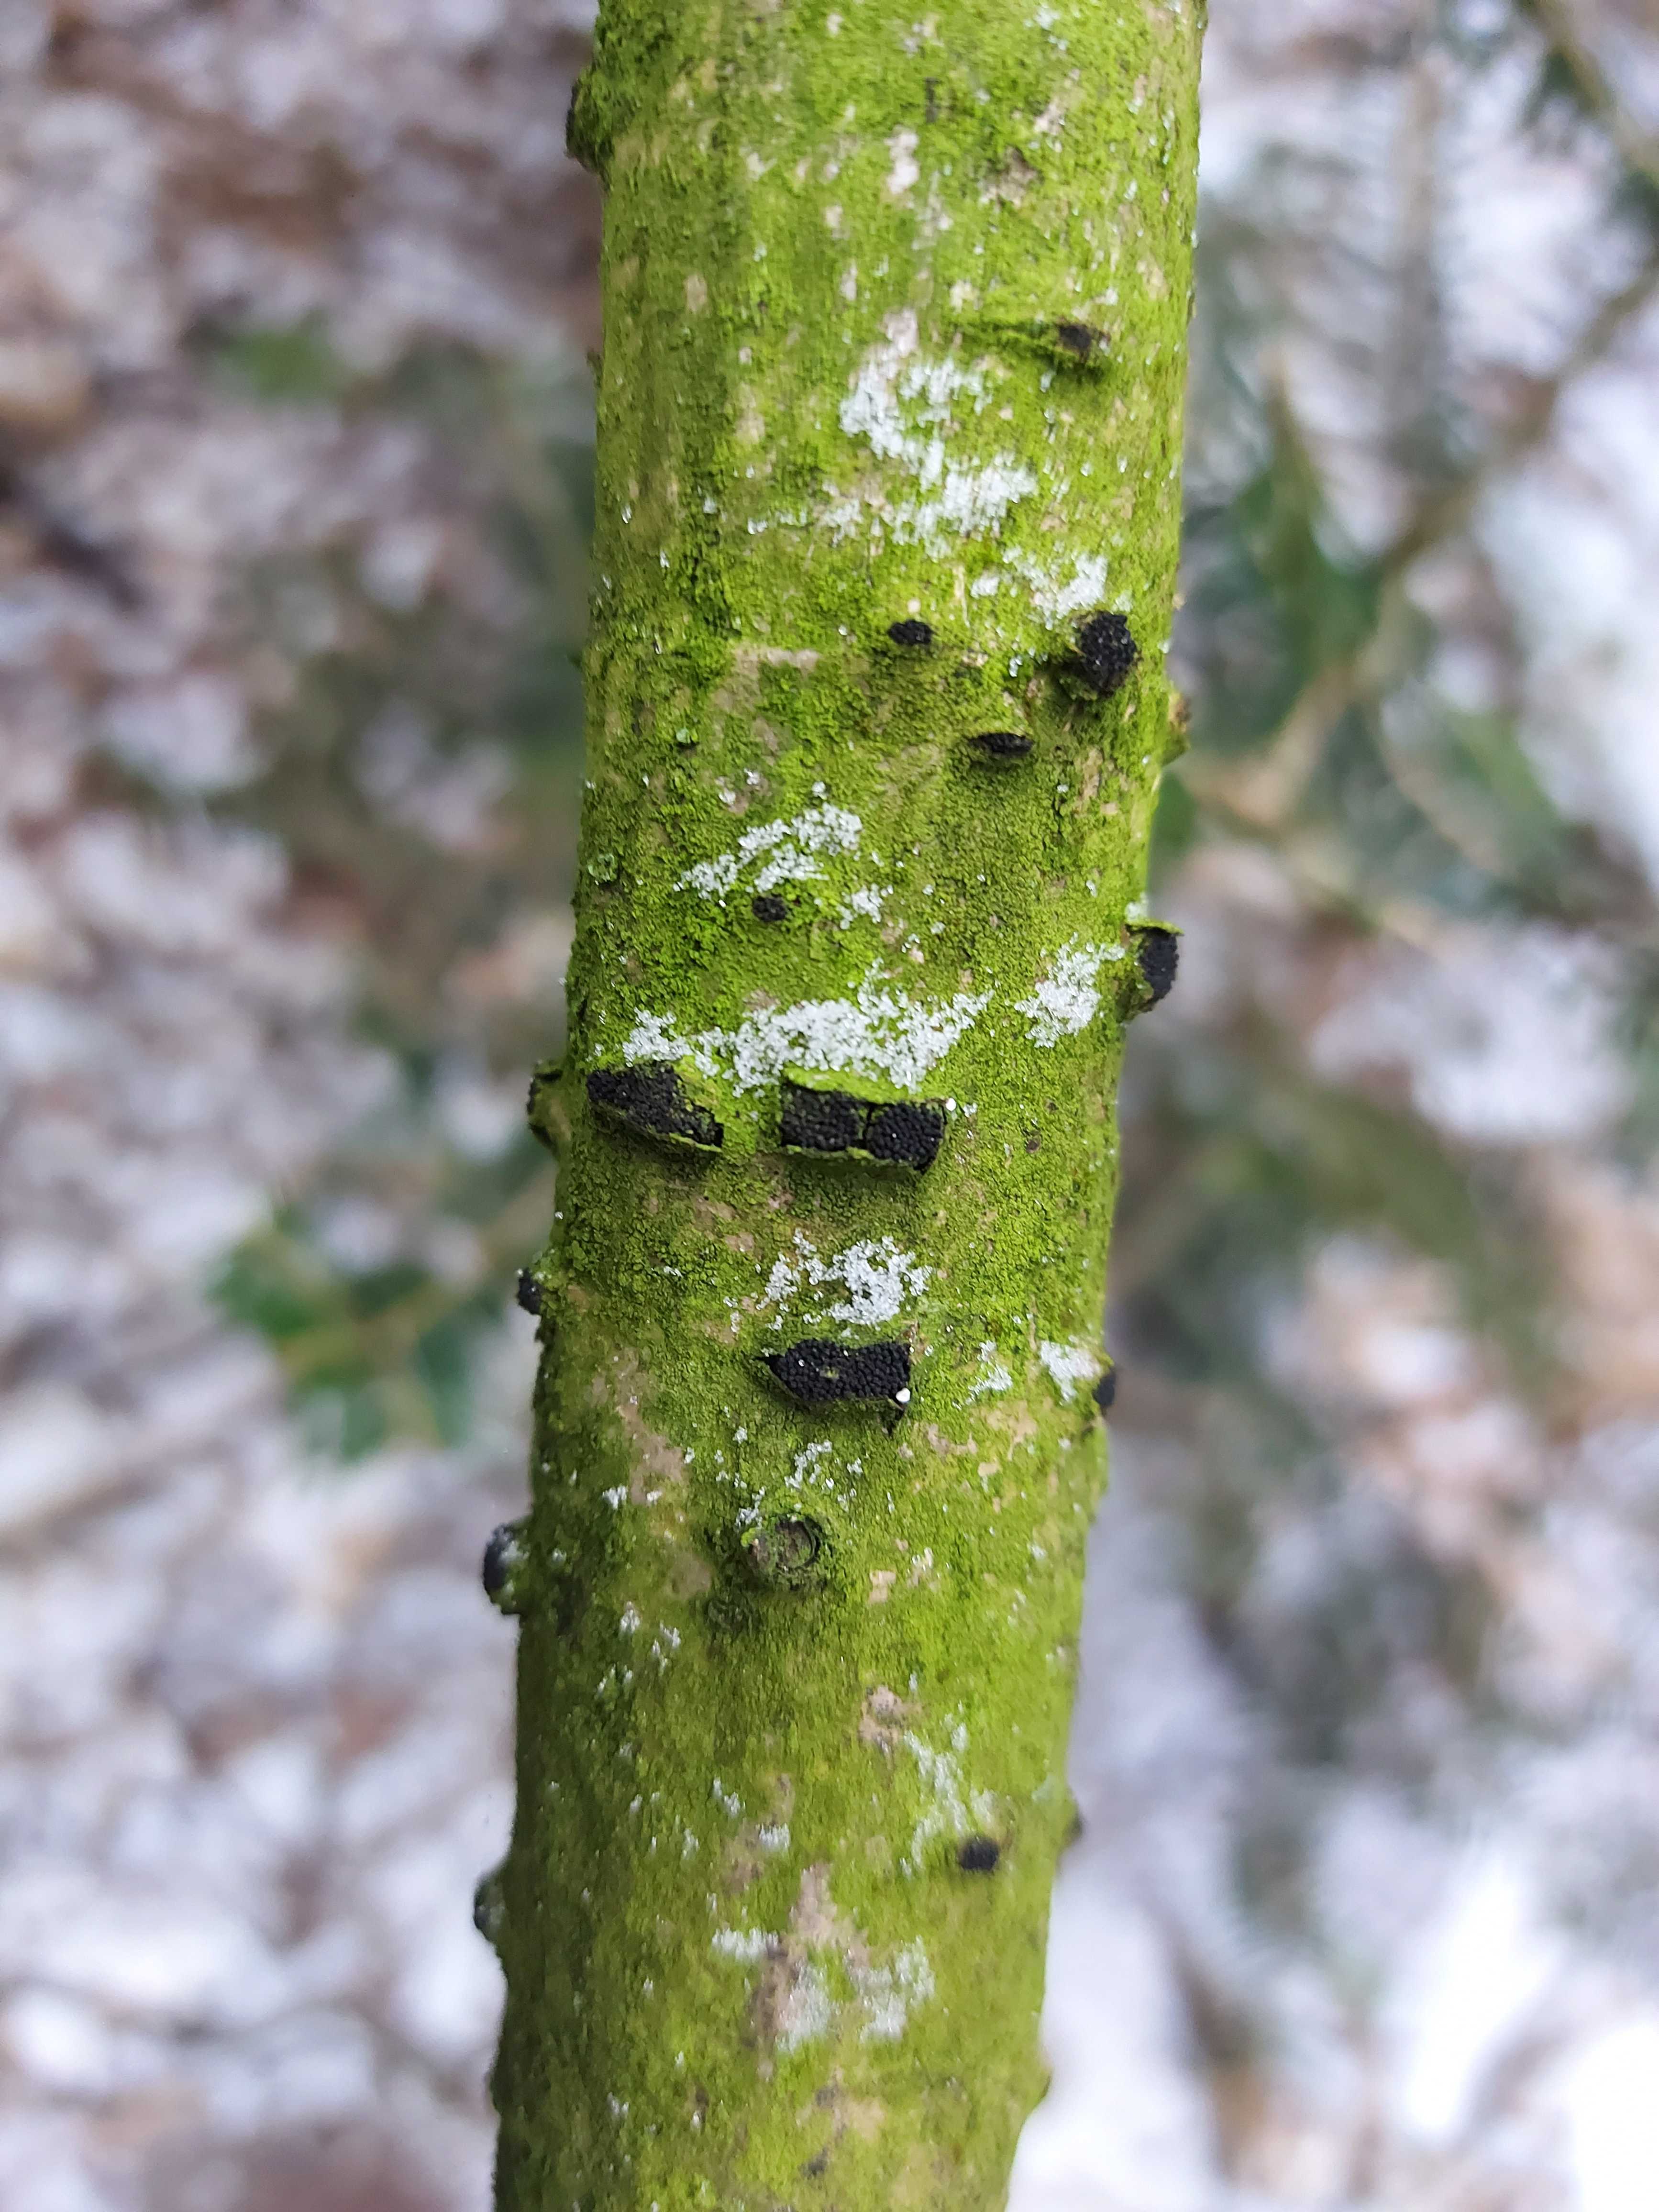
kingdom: Fungi
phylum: Ascomycota
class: Sordariomycetes
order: Xylariales
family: Diatrypaceae
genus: Eutypella
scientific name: Eutypella sorbi
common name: rønne-kulskorpe
